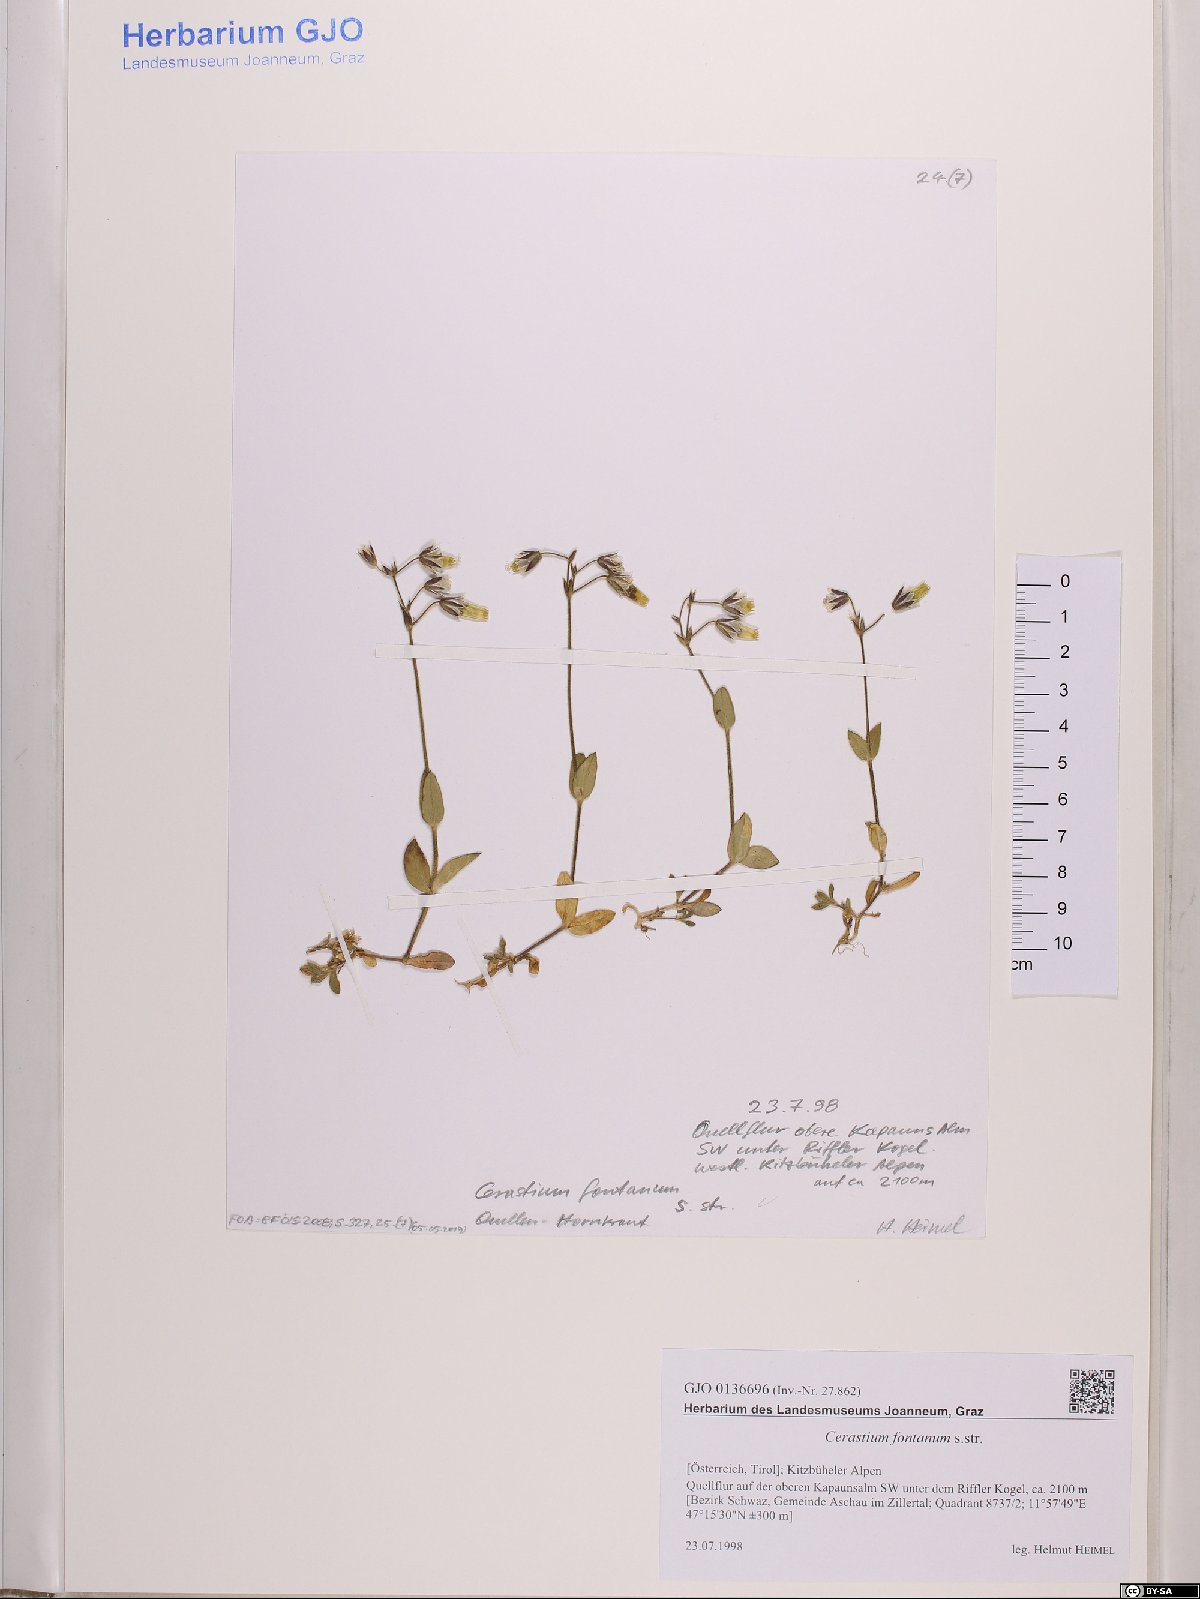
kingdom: Plantae
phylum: Tracheophyta
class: Magnoliopsida
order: Caryophyllales
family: Caryophyllaceae
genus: Cerastium
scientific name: Cerastium fontanum
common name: Common mouse-ear
